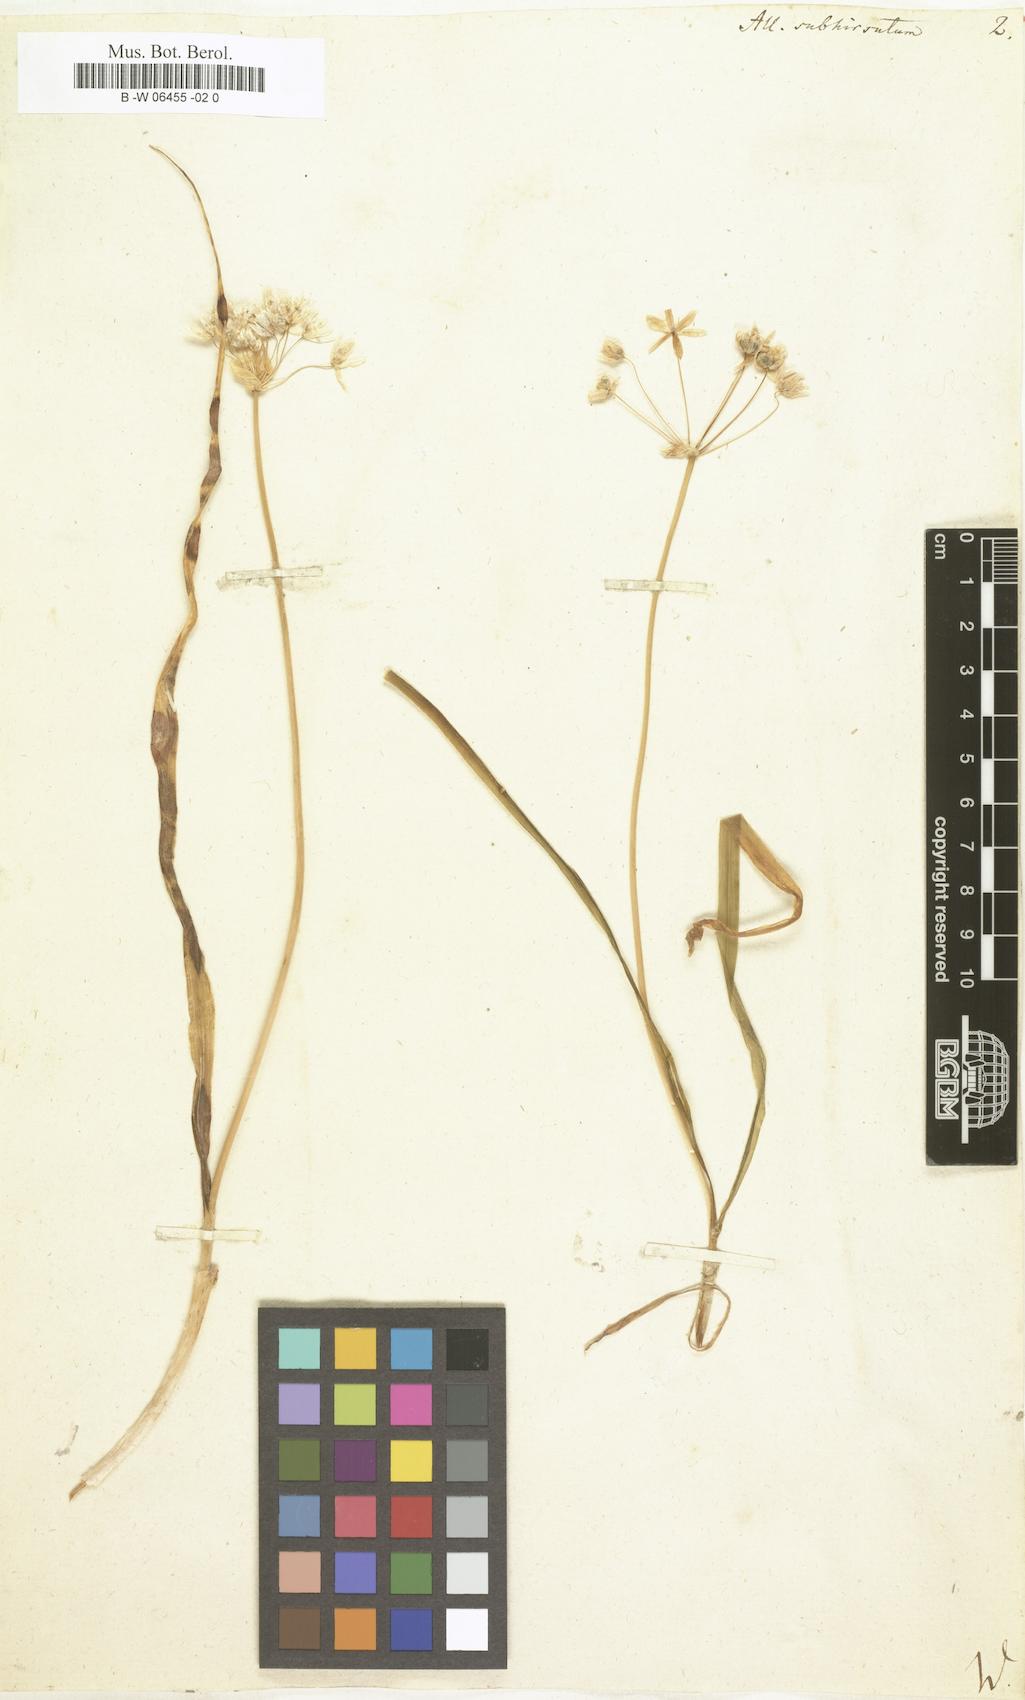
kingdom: Plantae
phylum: Tracheophyta
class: Liliopsida
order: Asparagales
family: Amaryllidaceae
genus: Allium
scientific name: Allium subhirsutum
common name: Hairy garlic
